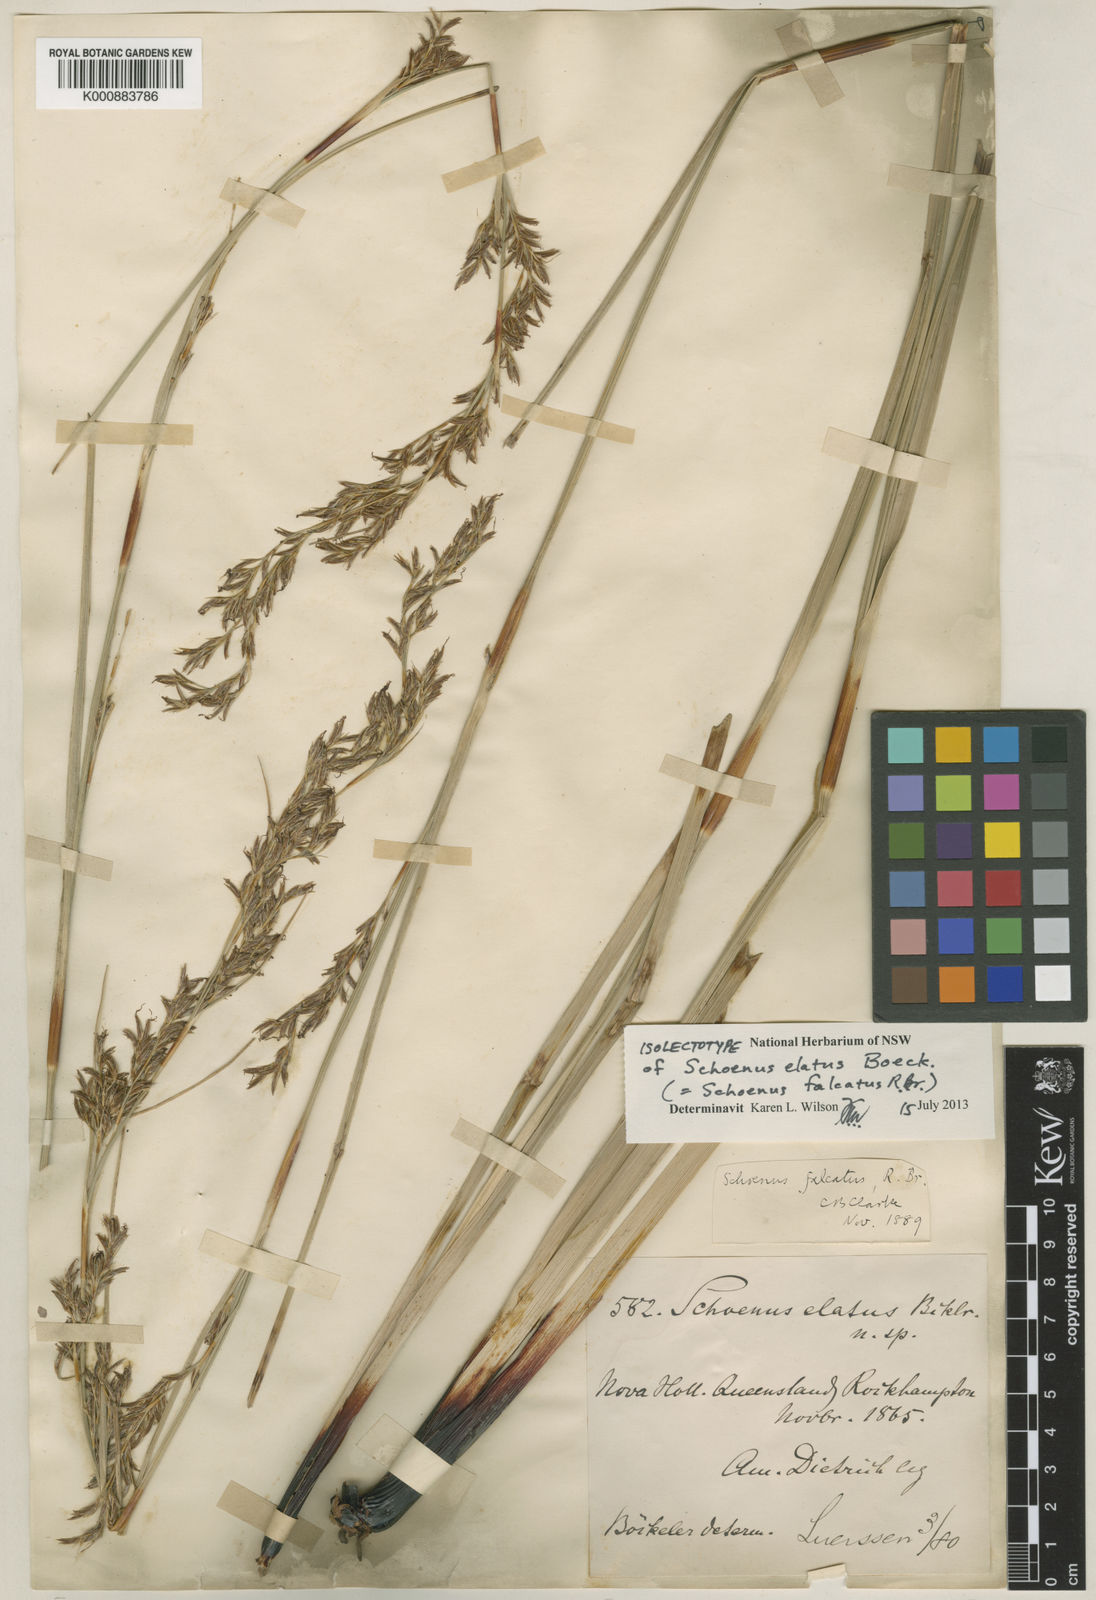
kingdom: Plantae
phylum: Tracheophyta
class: Liliopsida
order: Poales
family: Cyperaceae
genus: Schoenus
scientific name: Schoenus falcatus
